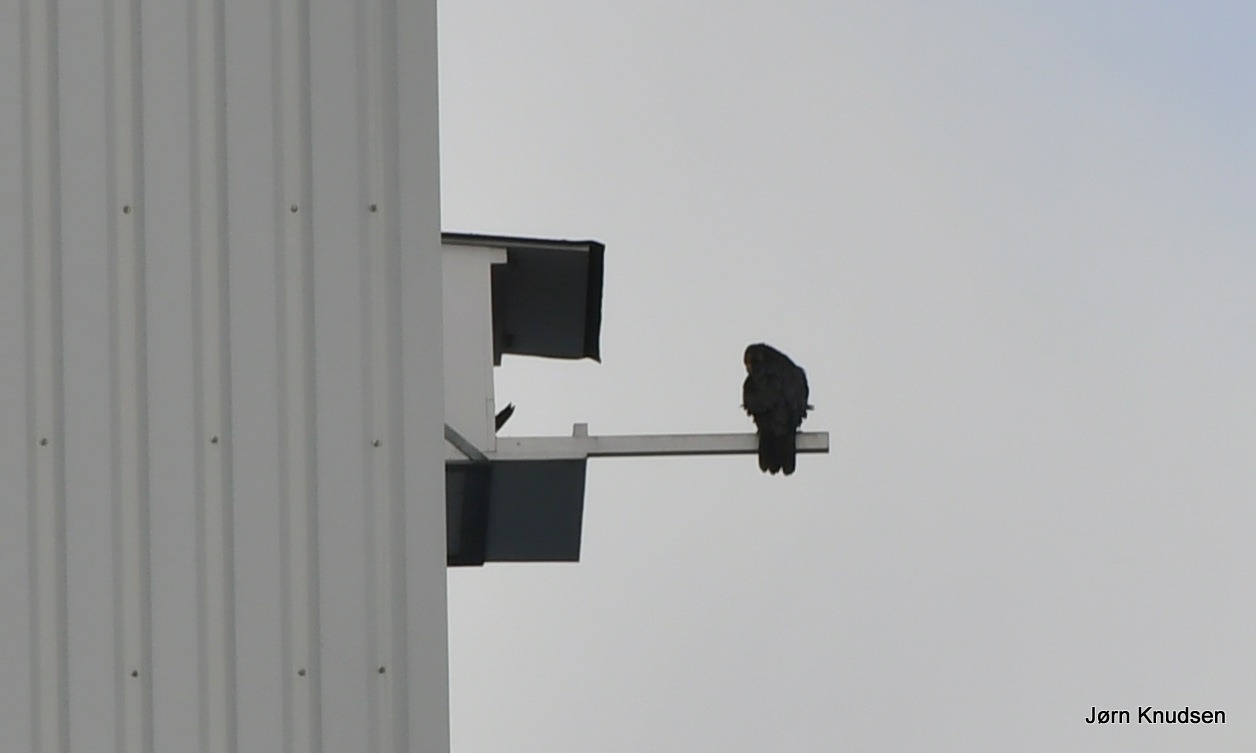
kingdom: Animalia
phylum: Chordata
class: Aves
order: Falconiformes
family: Falconidae
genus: Falco
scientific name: Falco peregrinus
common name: Vandrefalk
